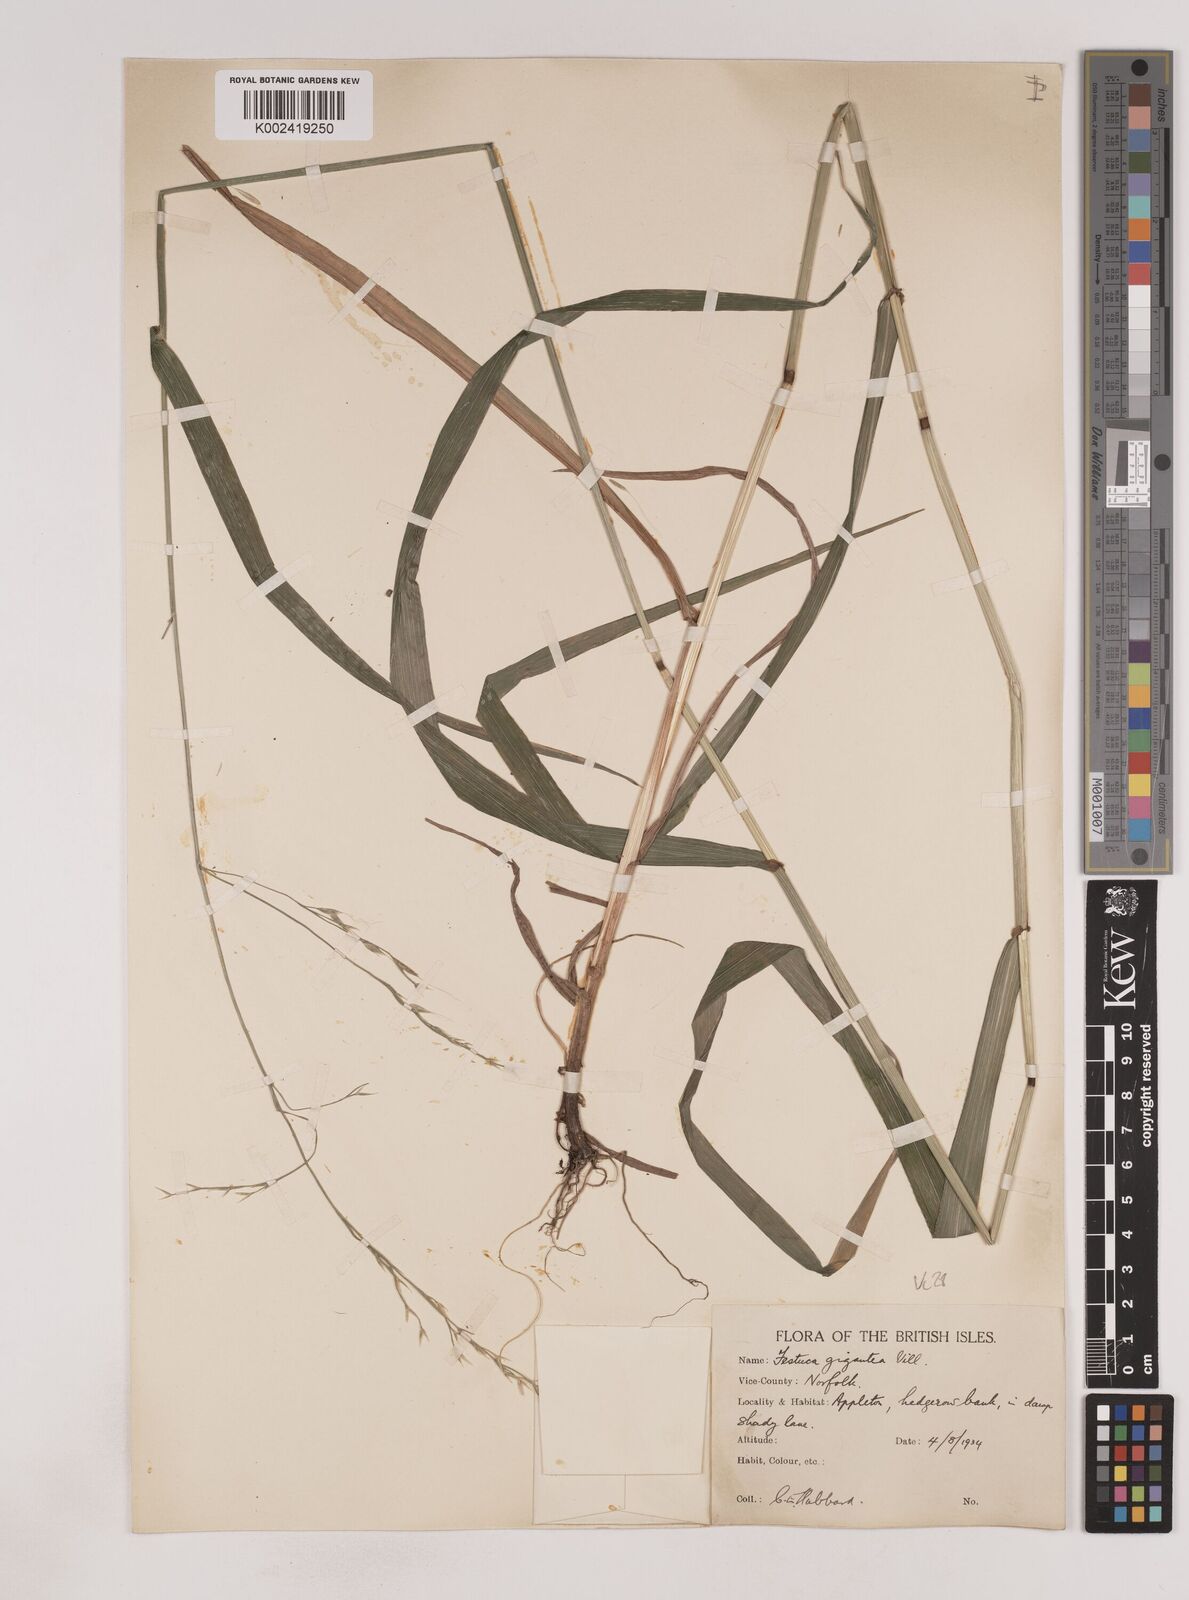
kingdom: Plantae
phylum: Tracheophyta
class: Liliopsida
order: Poales
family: Poaceae
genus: Lolium
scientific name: Lolium giganteum
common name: Giant fescue
